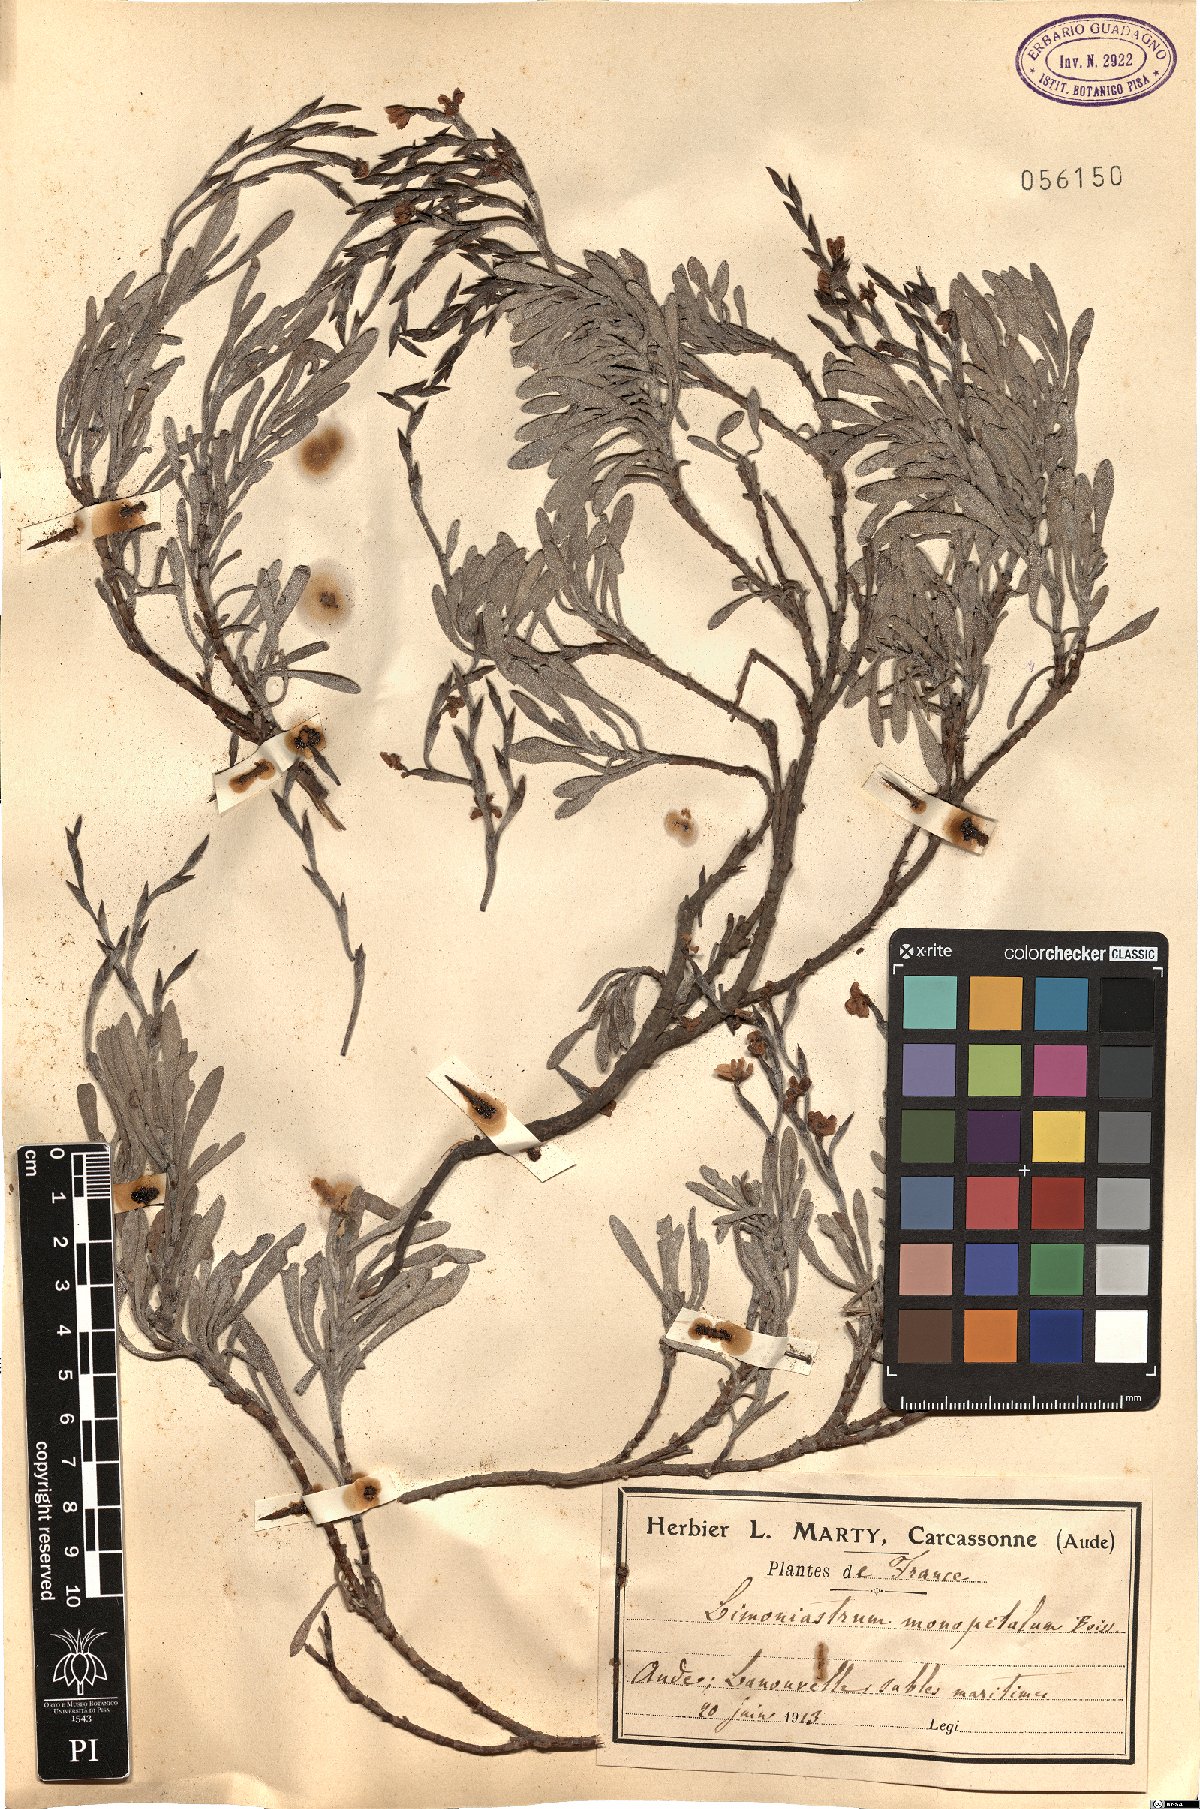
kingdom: Plantae
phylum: Tracheophyta
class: Magnoliopsida
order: Caryophyllales
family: Plumbaginaceae
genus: Limoniastrum
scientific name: Limoniastrum monopetalum
